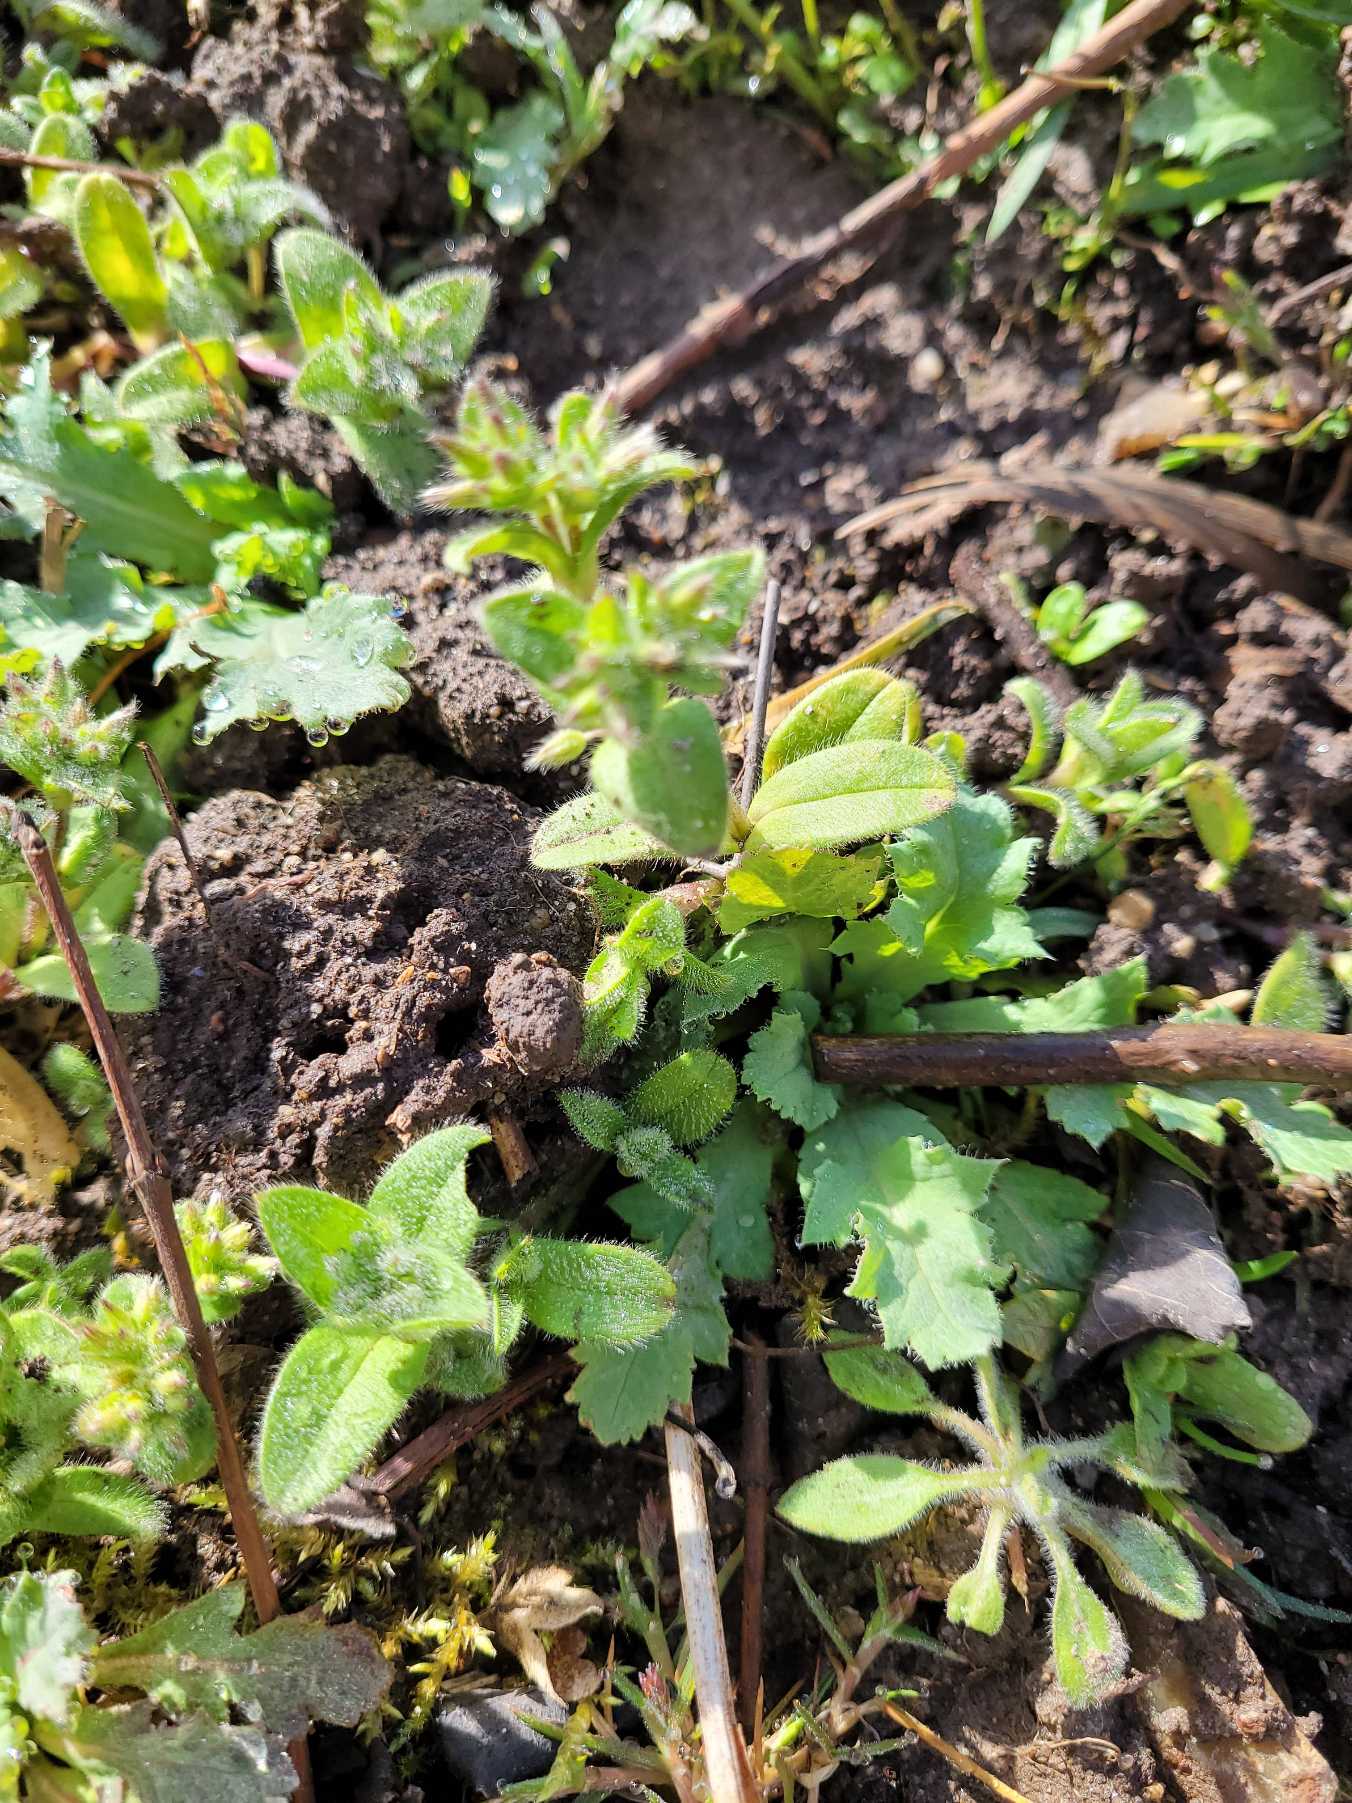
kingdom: Plantae
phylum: Tracheophyta
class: Magnoliopsida
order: Caryophyllales
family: Caryophyllaceae
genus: Cerastium
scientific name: Cerastium glomeratum
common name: Opret hønsetarm
